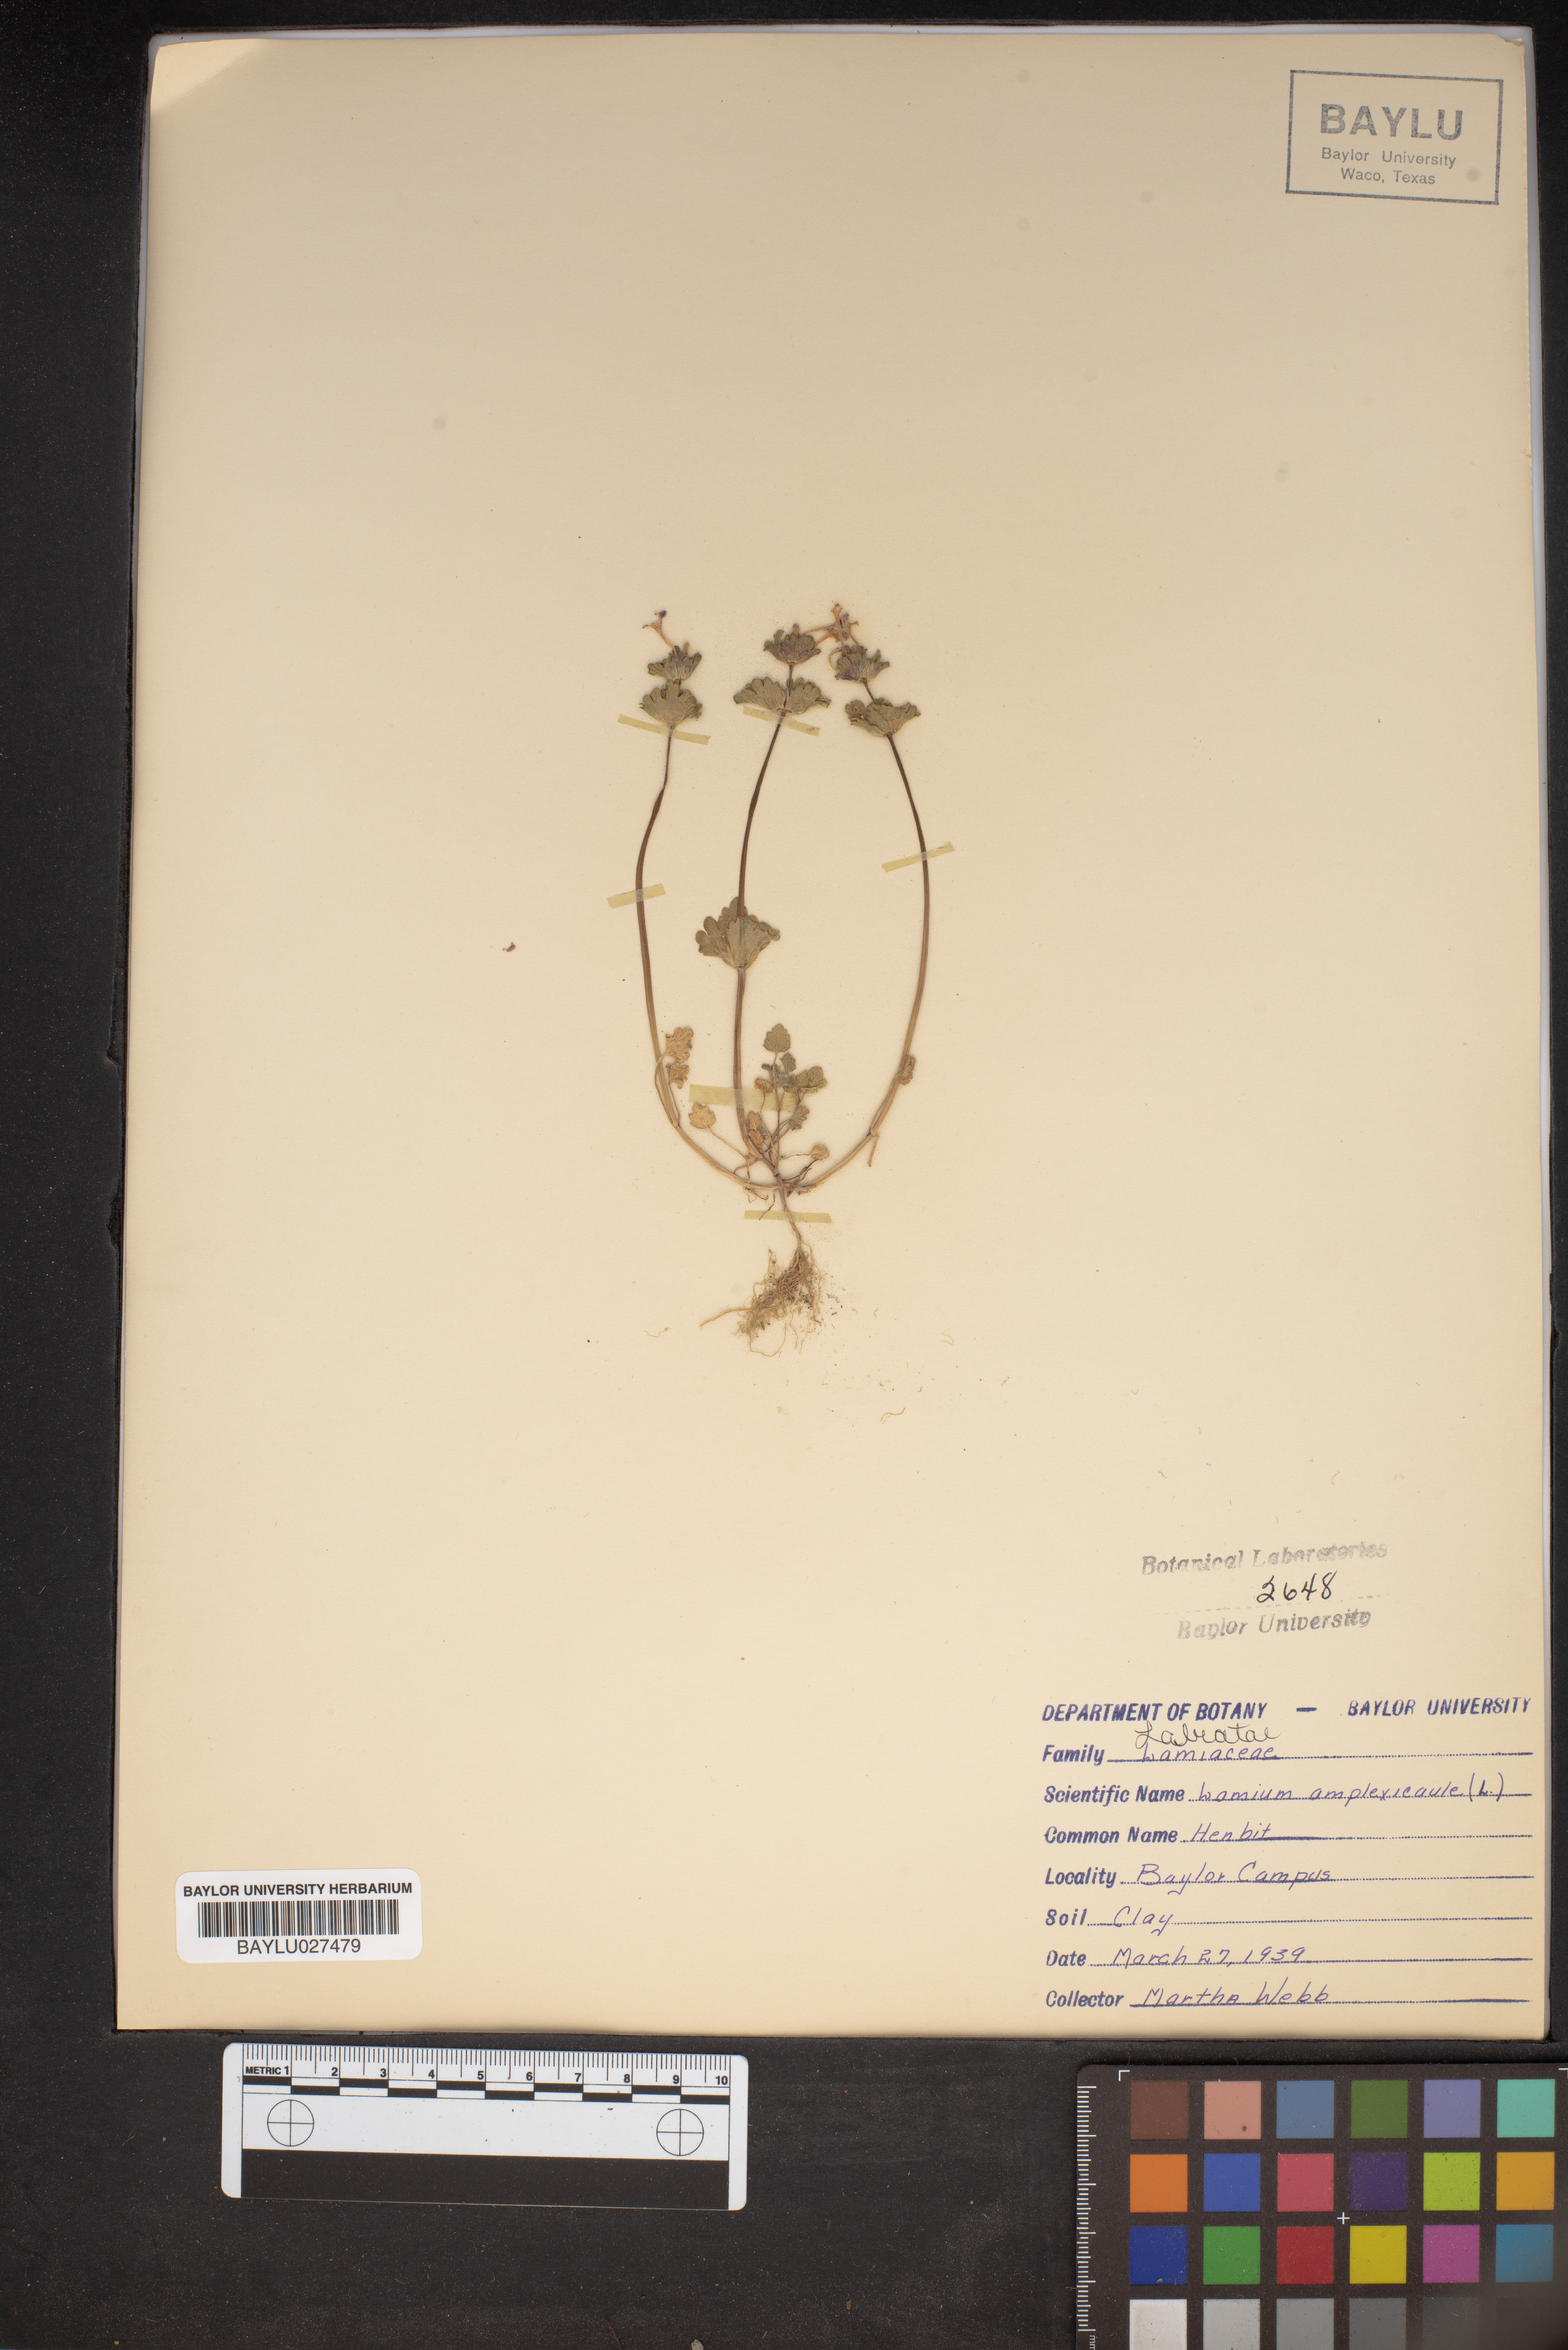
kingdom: Plantae
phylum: Tracheophyta
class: Magnoliopsida
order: Lamiales
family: Lamiaceae
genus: Lamium
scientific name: Lamium amplexicaule
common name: Henbit dead-nettle
